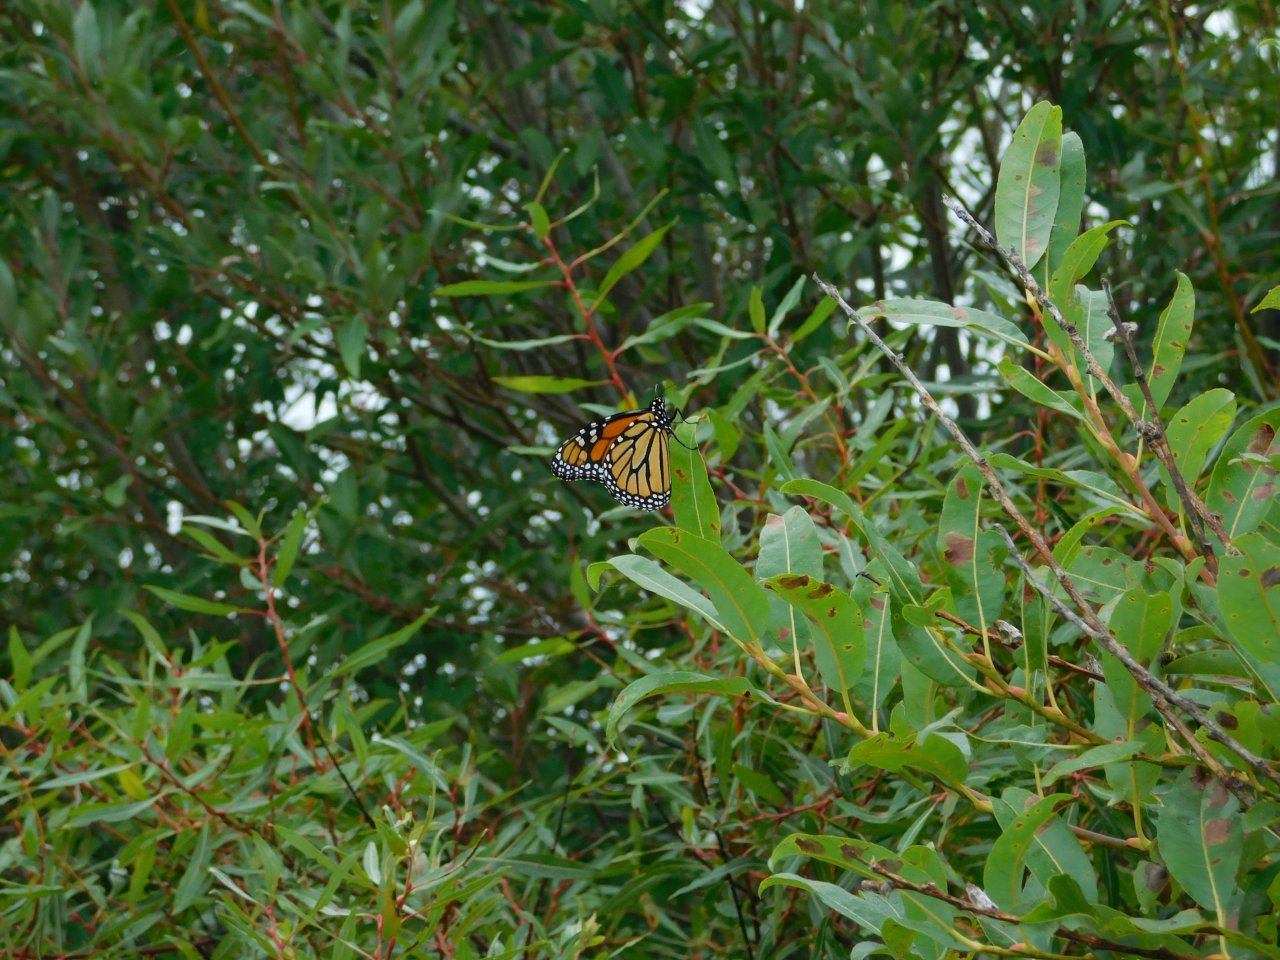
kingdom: Animalia
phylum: Arthropoda
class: Insecta
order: Lepidoptera
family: Nymphalidae
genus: Danaus
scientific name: Danaus plexippus
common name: Monarch
